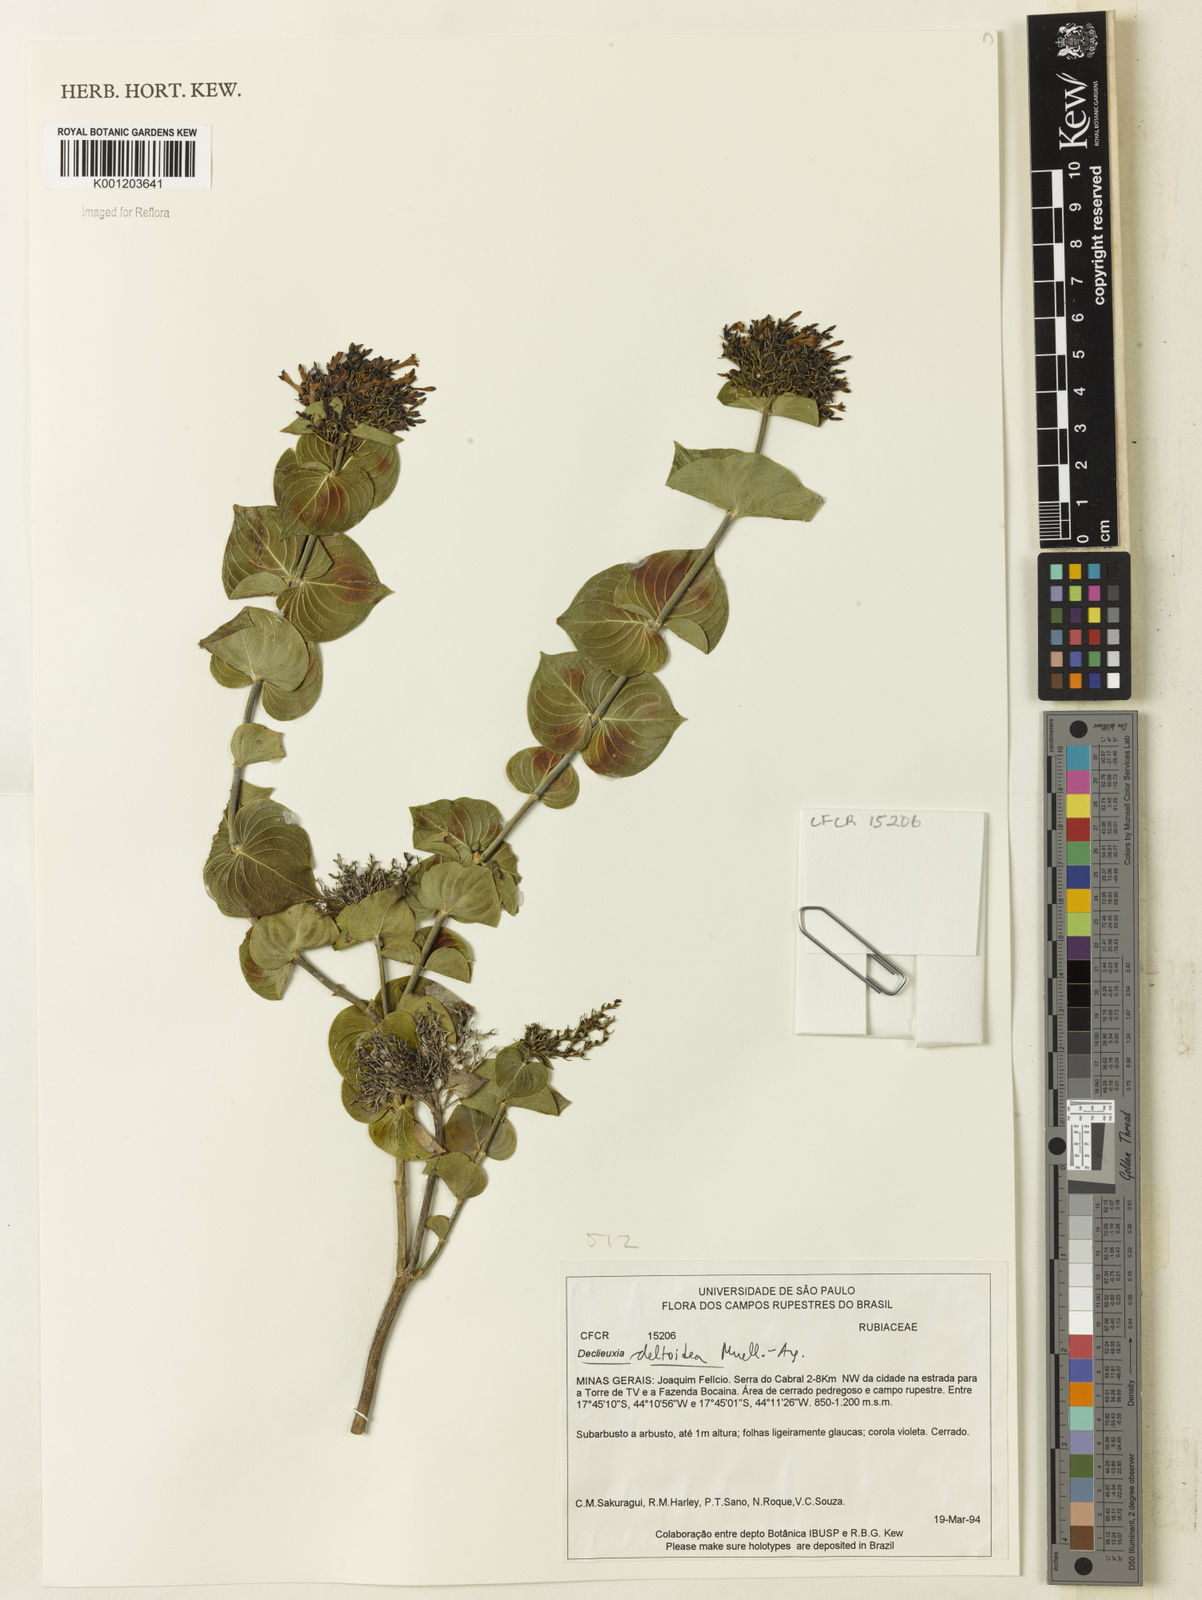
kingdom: Plantae
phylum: Tracheophyta
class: Magnoliopsida
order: Gentianales
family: Rubiaceae
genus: Declieuxia
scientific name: Declieuxia
